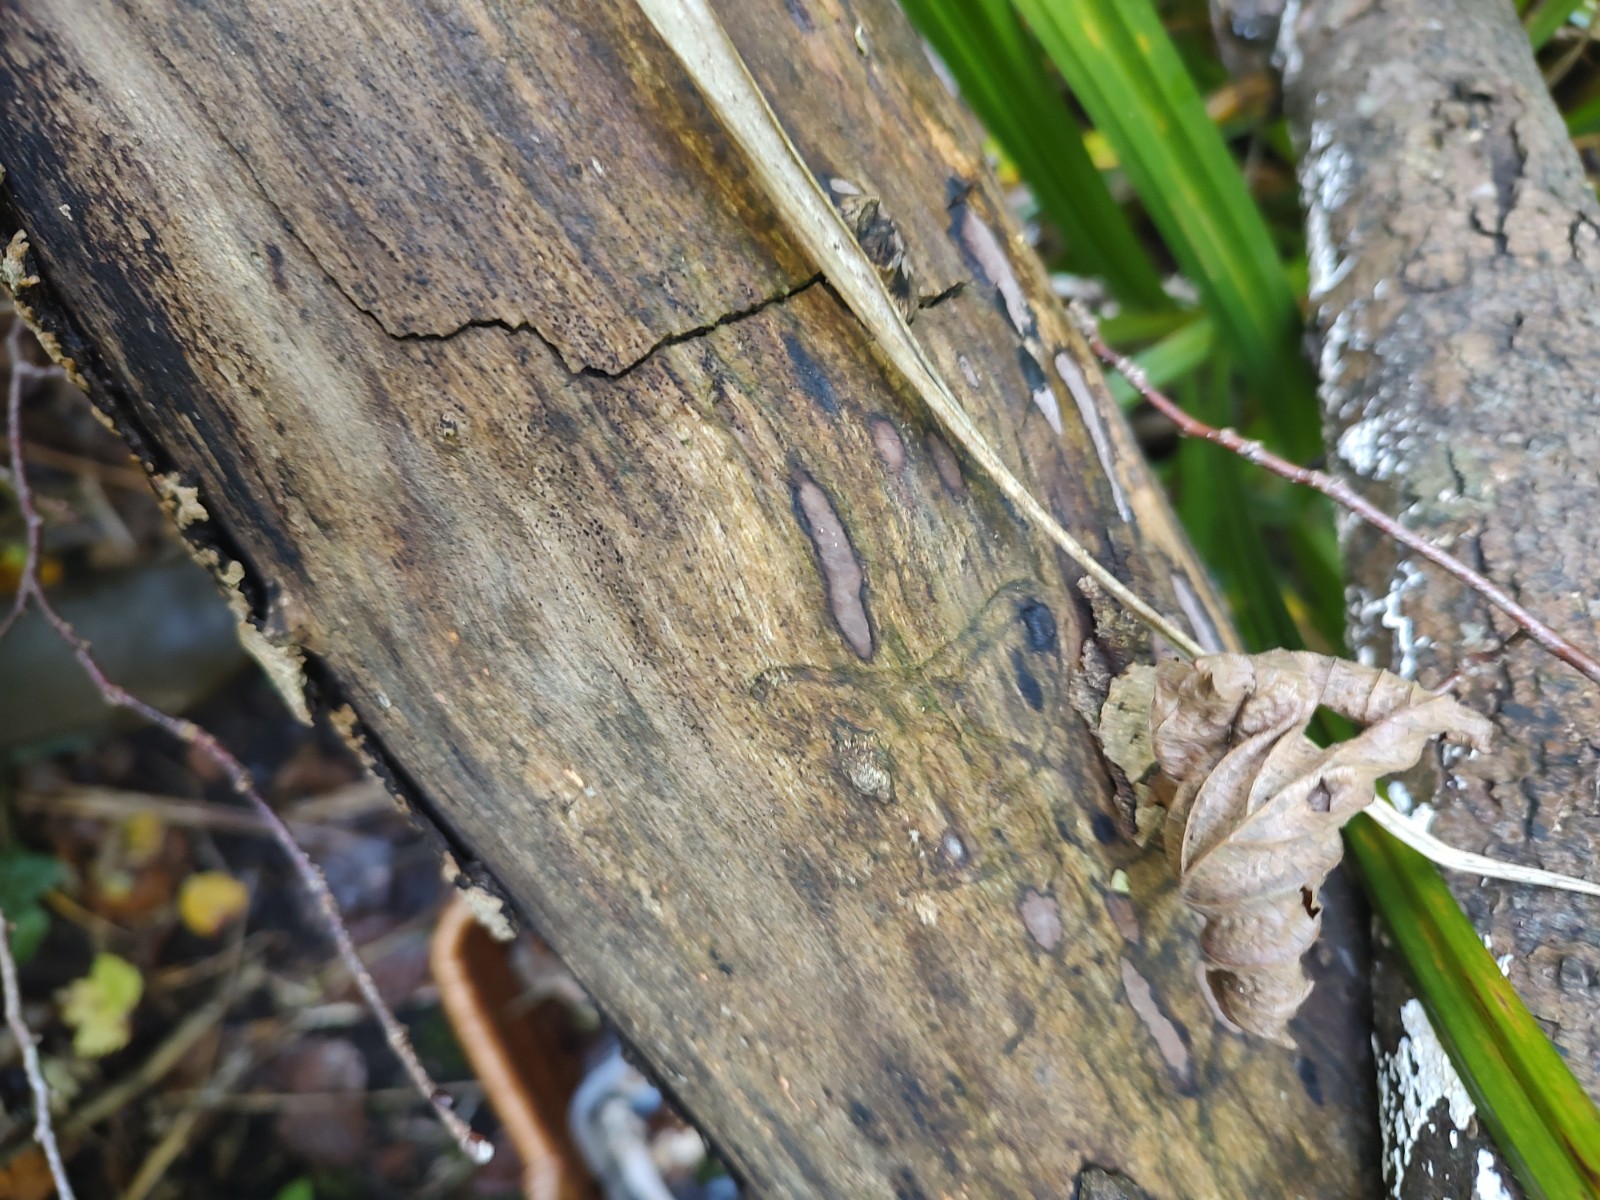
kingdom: Fungi
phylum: Ascomycota
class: Sordariomycetes
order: Xylariales
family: Hypoxylaceae
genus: Hypoxylon
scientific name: Hypoxylon petriniae
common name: nedsænket kulbær
